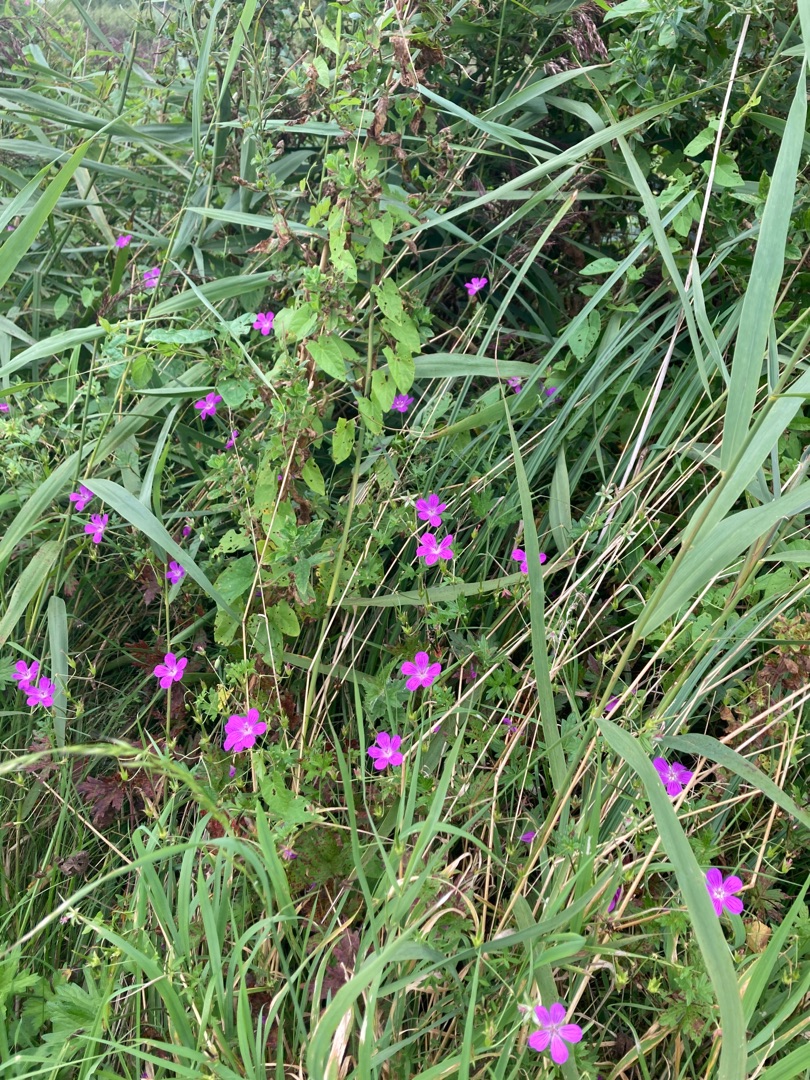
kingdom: Plantae
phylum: Tracheophyta
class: Magnoliopsida
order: Geraniales
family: Geraniaceae
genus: Geranium
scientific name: Geranium palustre
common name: Kær-storkenæb
